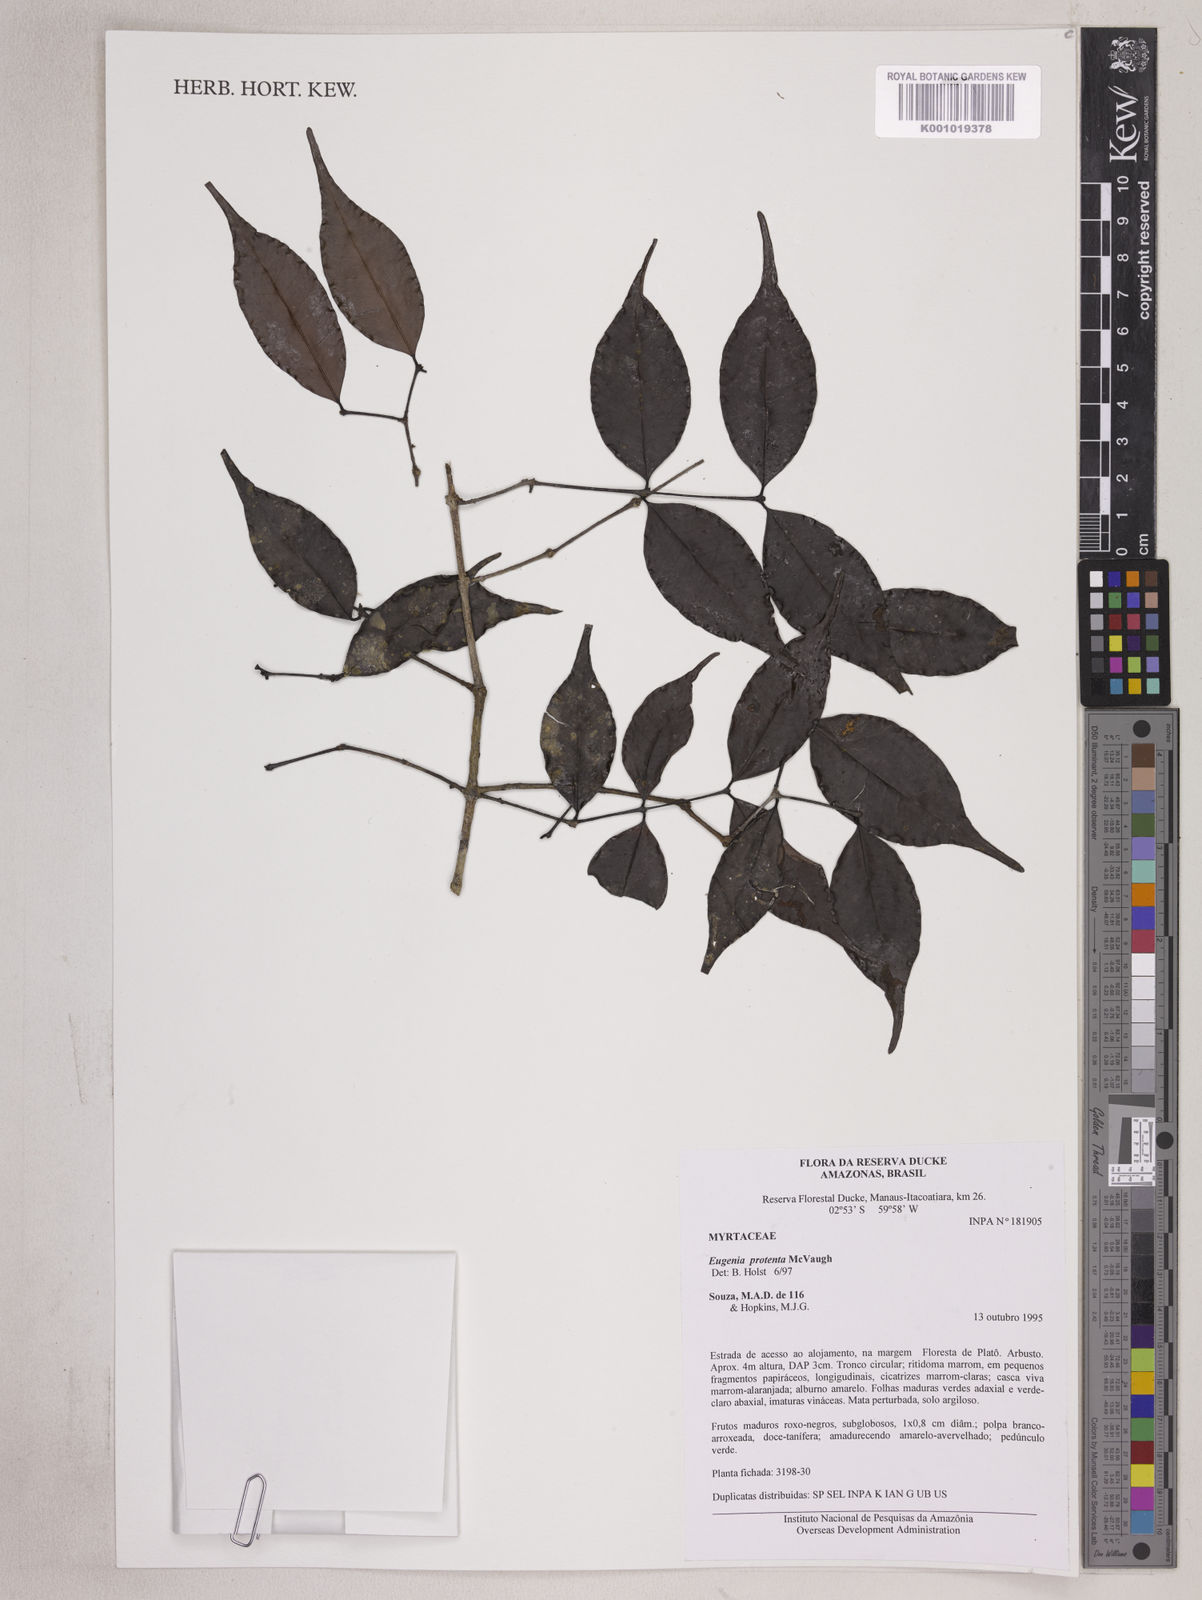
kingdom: Plantae
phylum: Tracheophyta
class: Magnoliopsida
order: Myrtales
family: Myrtaceae
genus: Eugenia
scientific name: Eugenia protenta
